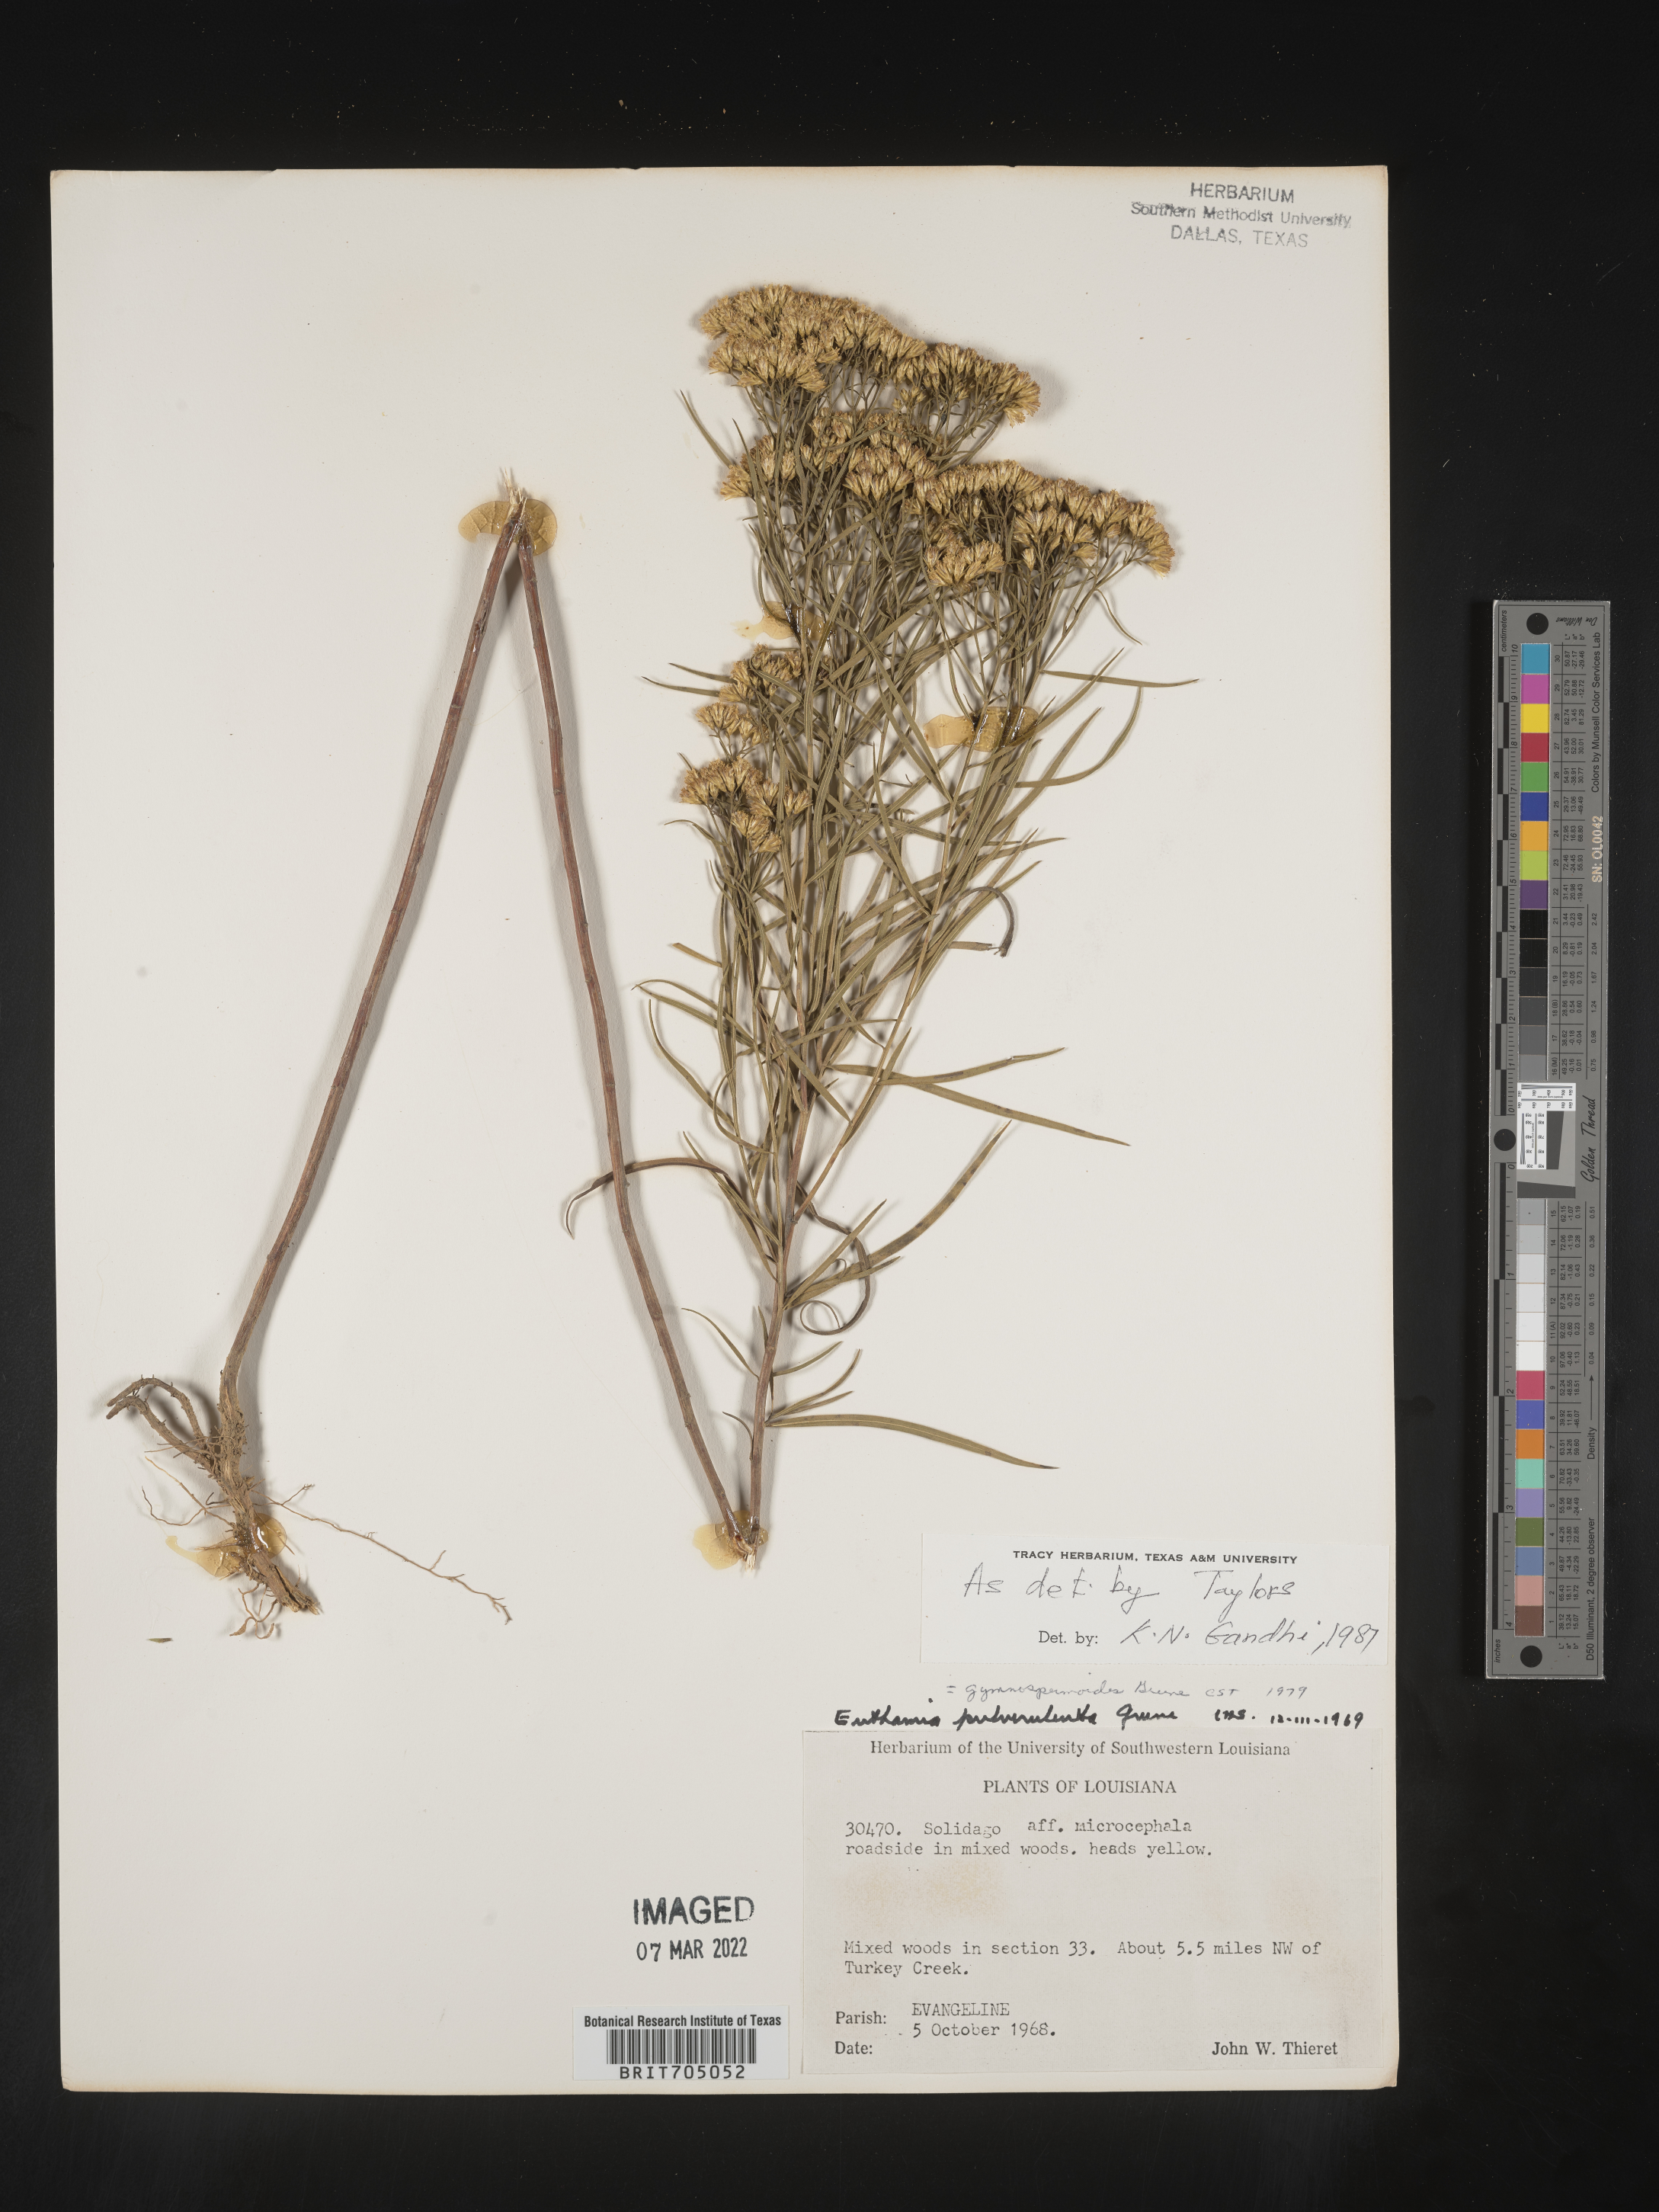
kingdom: Plantae
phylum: Tracheophyta
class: Magnoliopsida
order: Asterales
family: Asteraceae
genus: Euthamia
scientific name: Euthamia gymnospermoides
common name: Great plains goldentop
